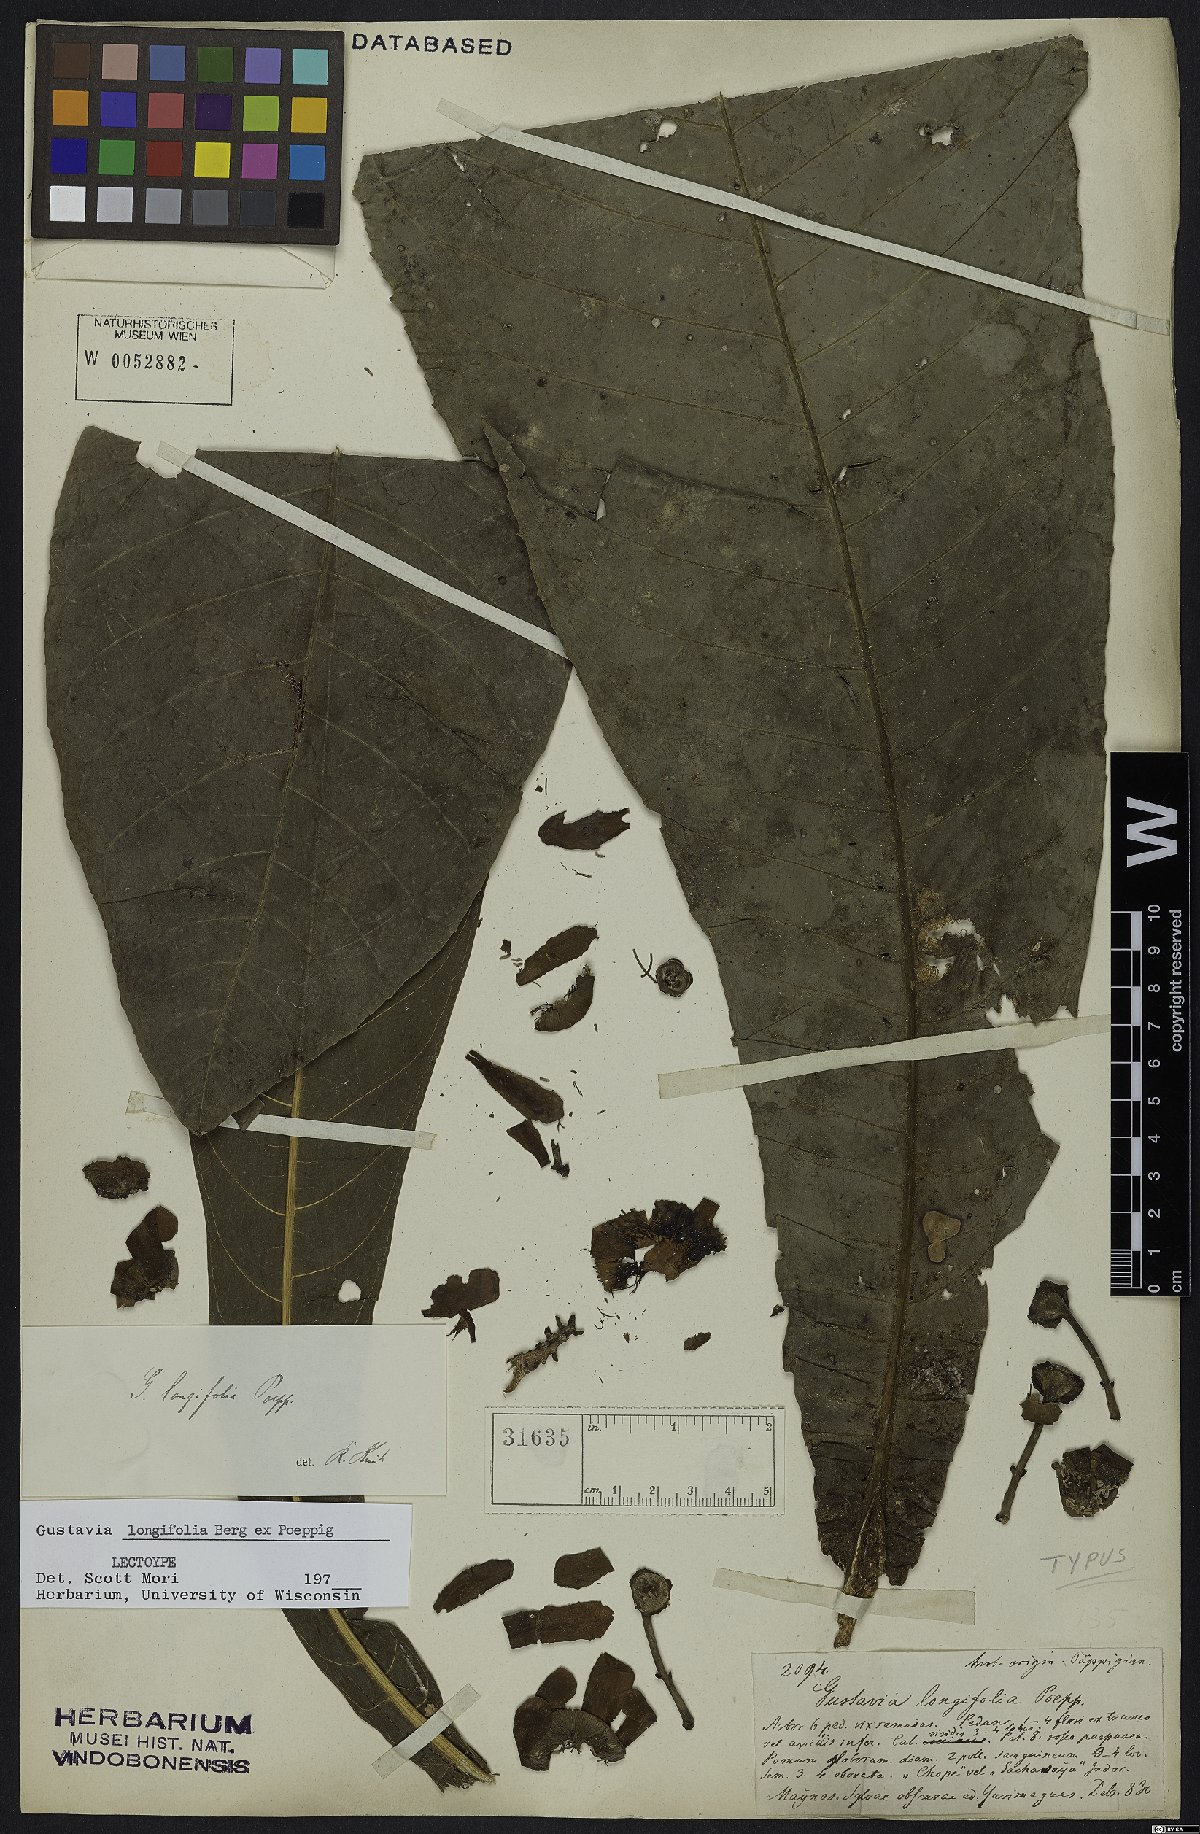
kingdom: Plantae
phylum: Tracheophyta
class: Magnoliopsida
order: Ericales
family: Lecythidaceae
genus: Gustavia
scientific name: Gustavia longifolia
